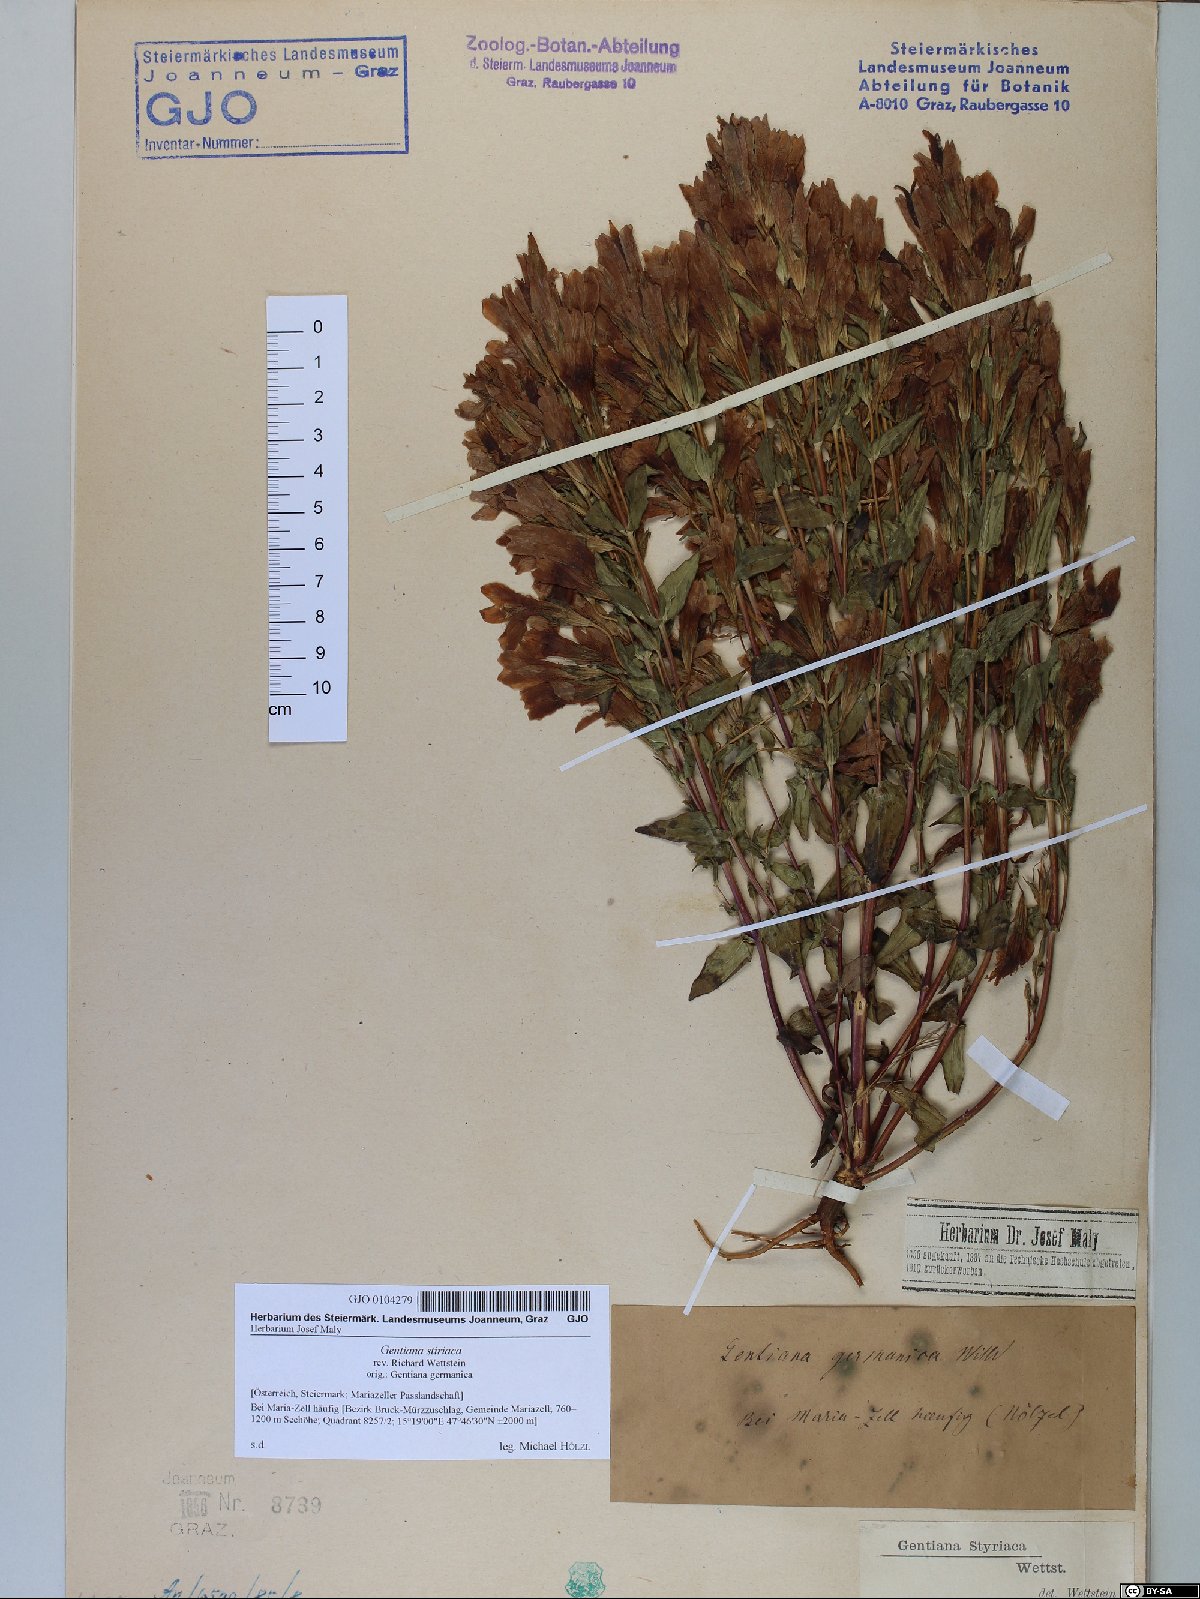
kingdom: Plantae
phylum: Tracheophyta
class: Magnoliopsida
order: Gentianales
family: Gentianaceae
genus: Gentianella
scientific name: Gentianella rhaetica
